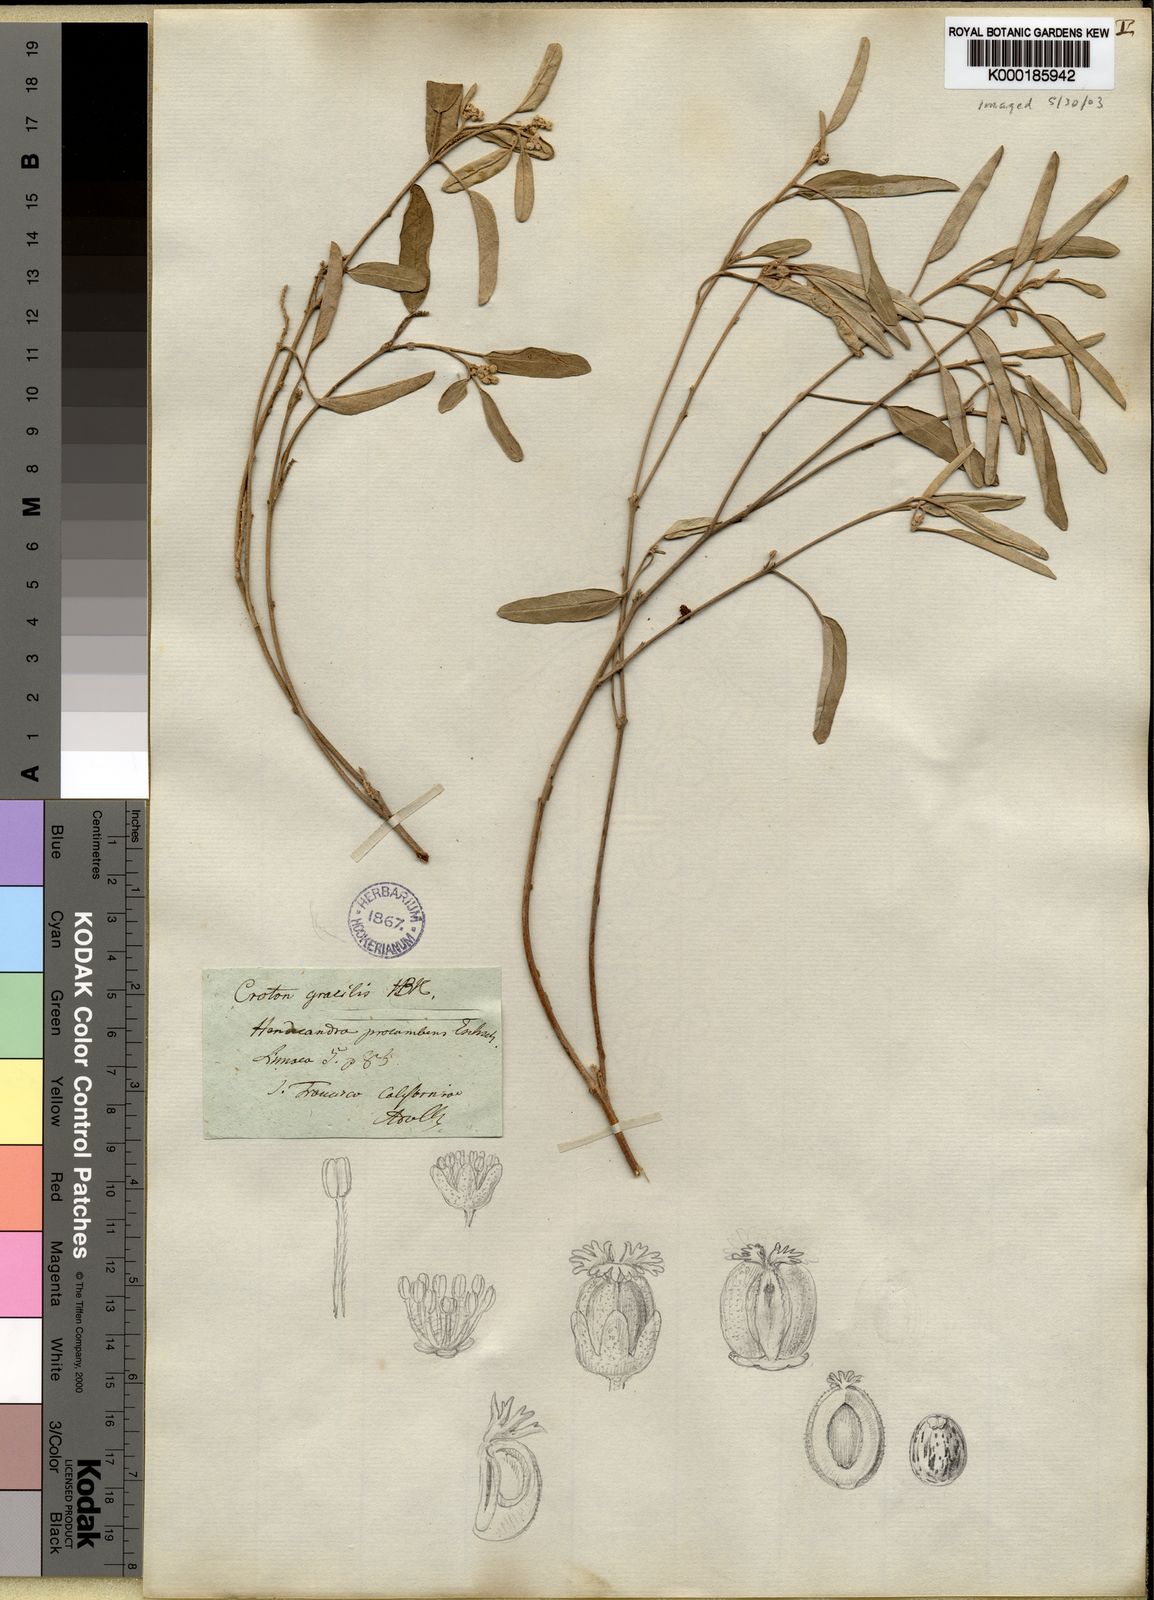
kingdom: Plantae
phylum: Tracheophyta
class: Magnoliopsida
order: Malpighiales
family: Euphorbiaceae
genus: Croton
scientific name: Croton
